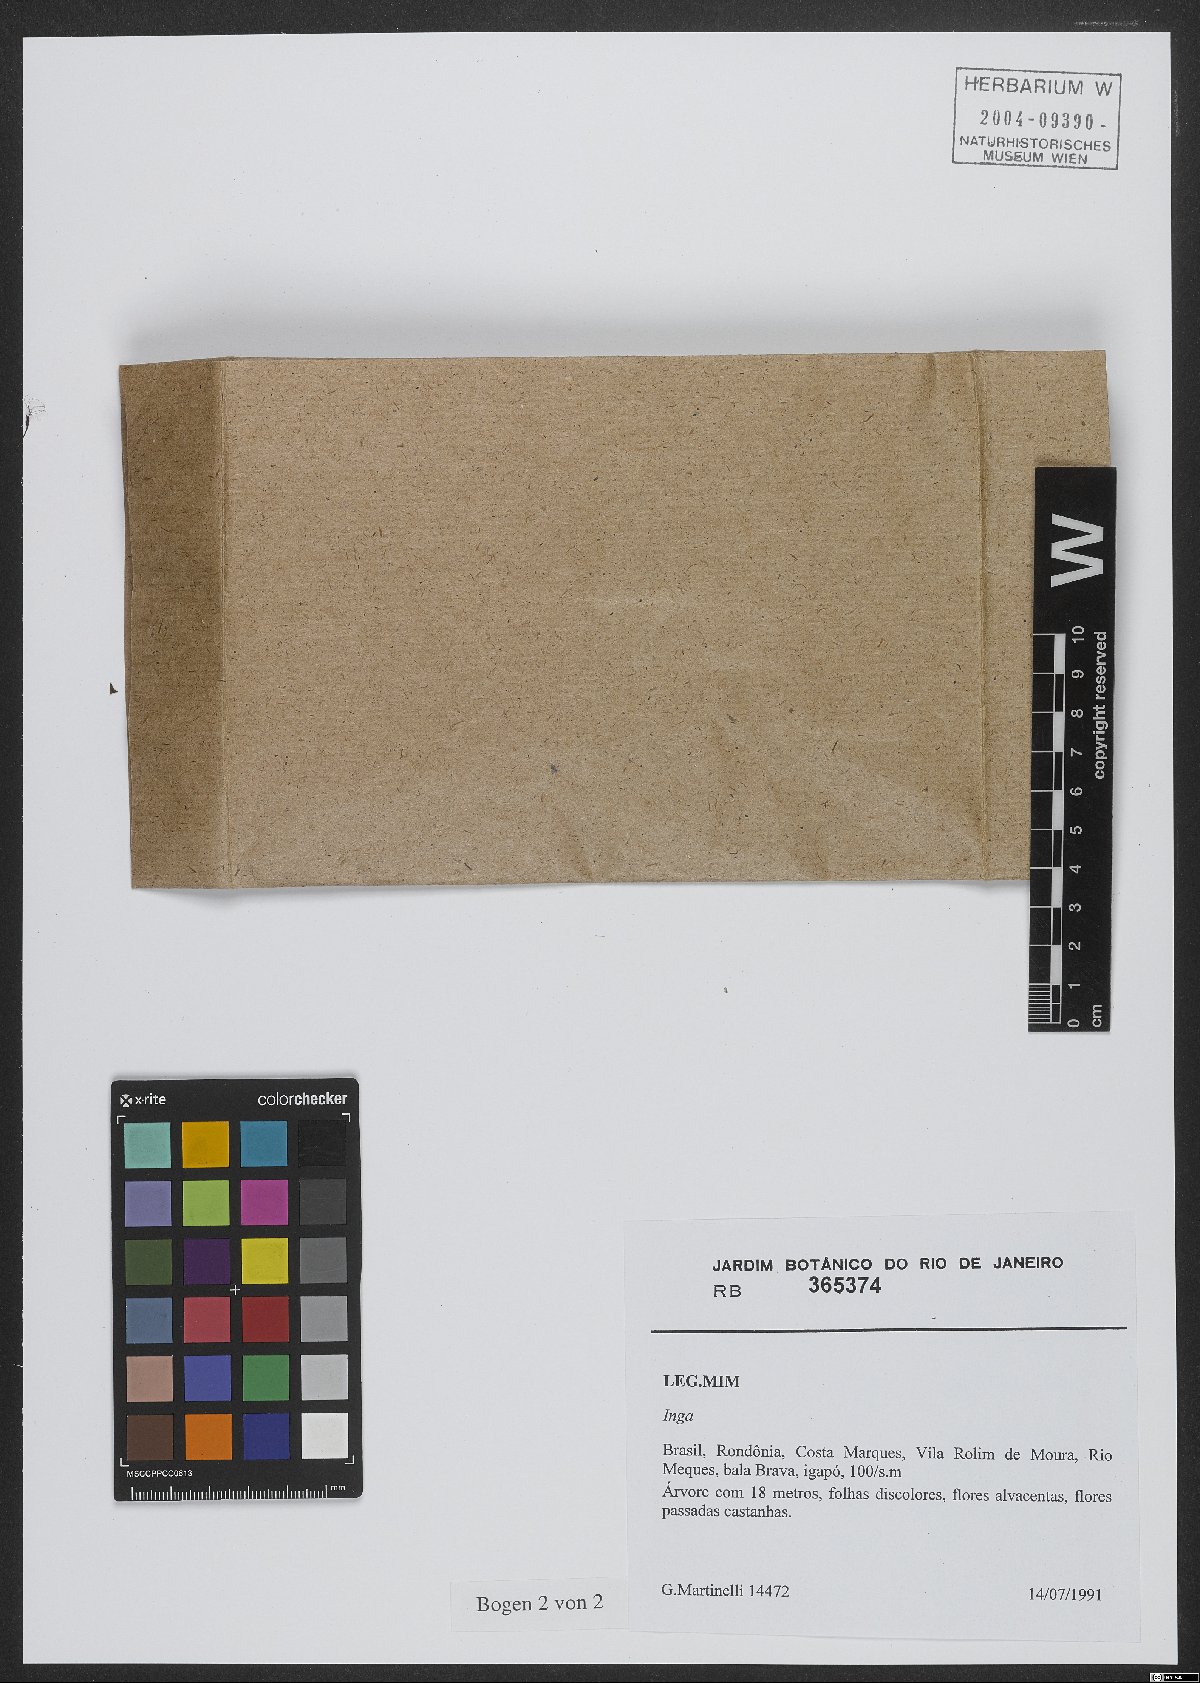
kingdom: Plantae
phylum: Tracheophyta
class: Magnoliopsida
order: Fabales
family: Fabaceae
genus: Inga
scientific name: Inga
